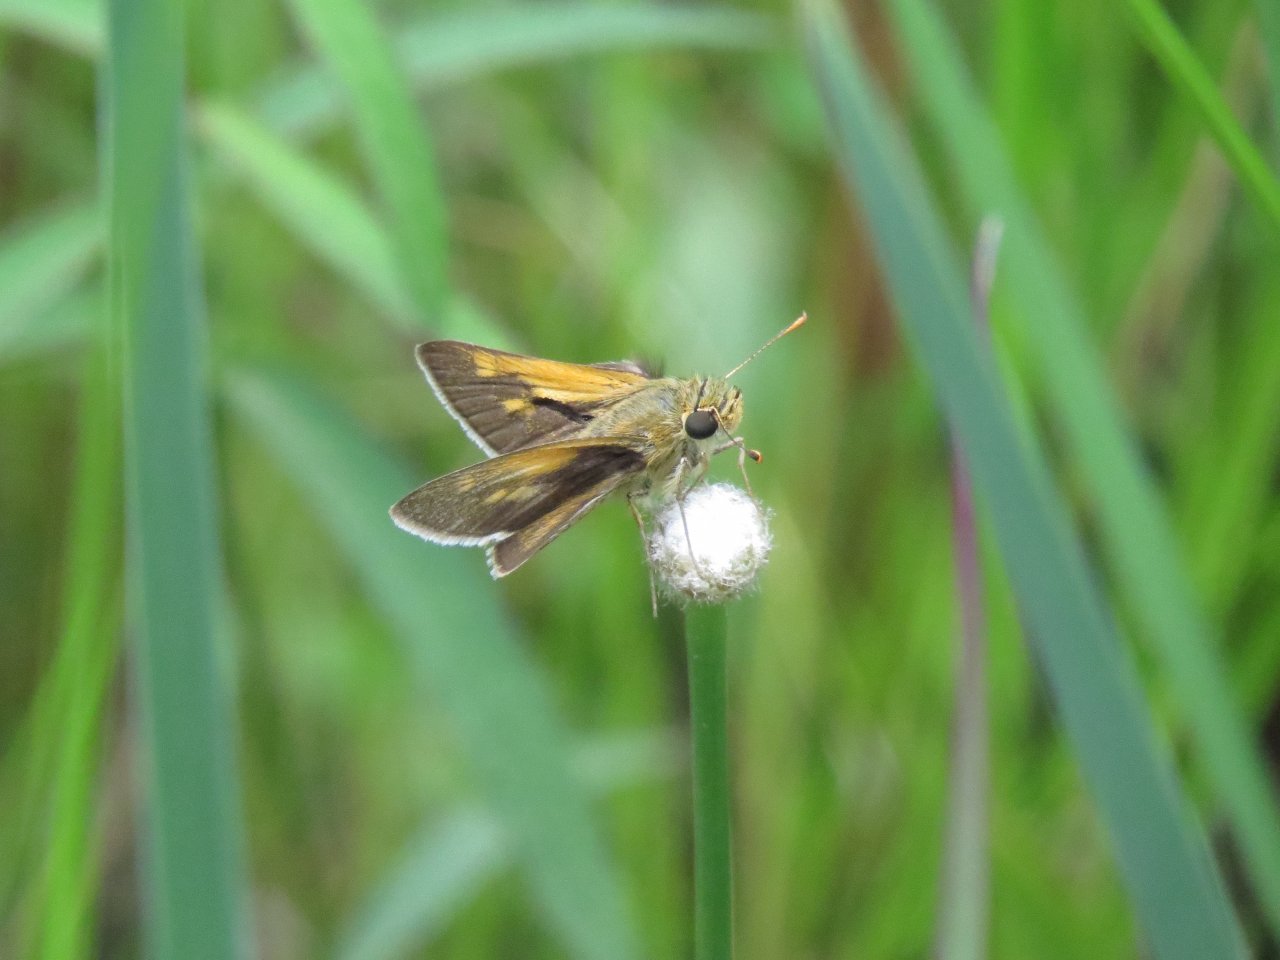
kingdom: Animalia
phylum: Arthropoda
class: Insecta
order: Lepidoptera
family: Hesperiidae
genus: Polites
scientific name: Polites themistocles
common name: Tawny-edged Skipper
